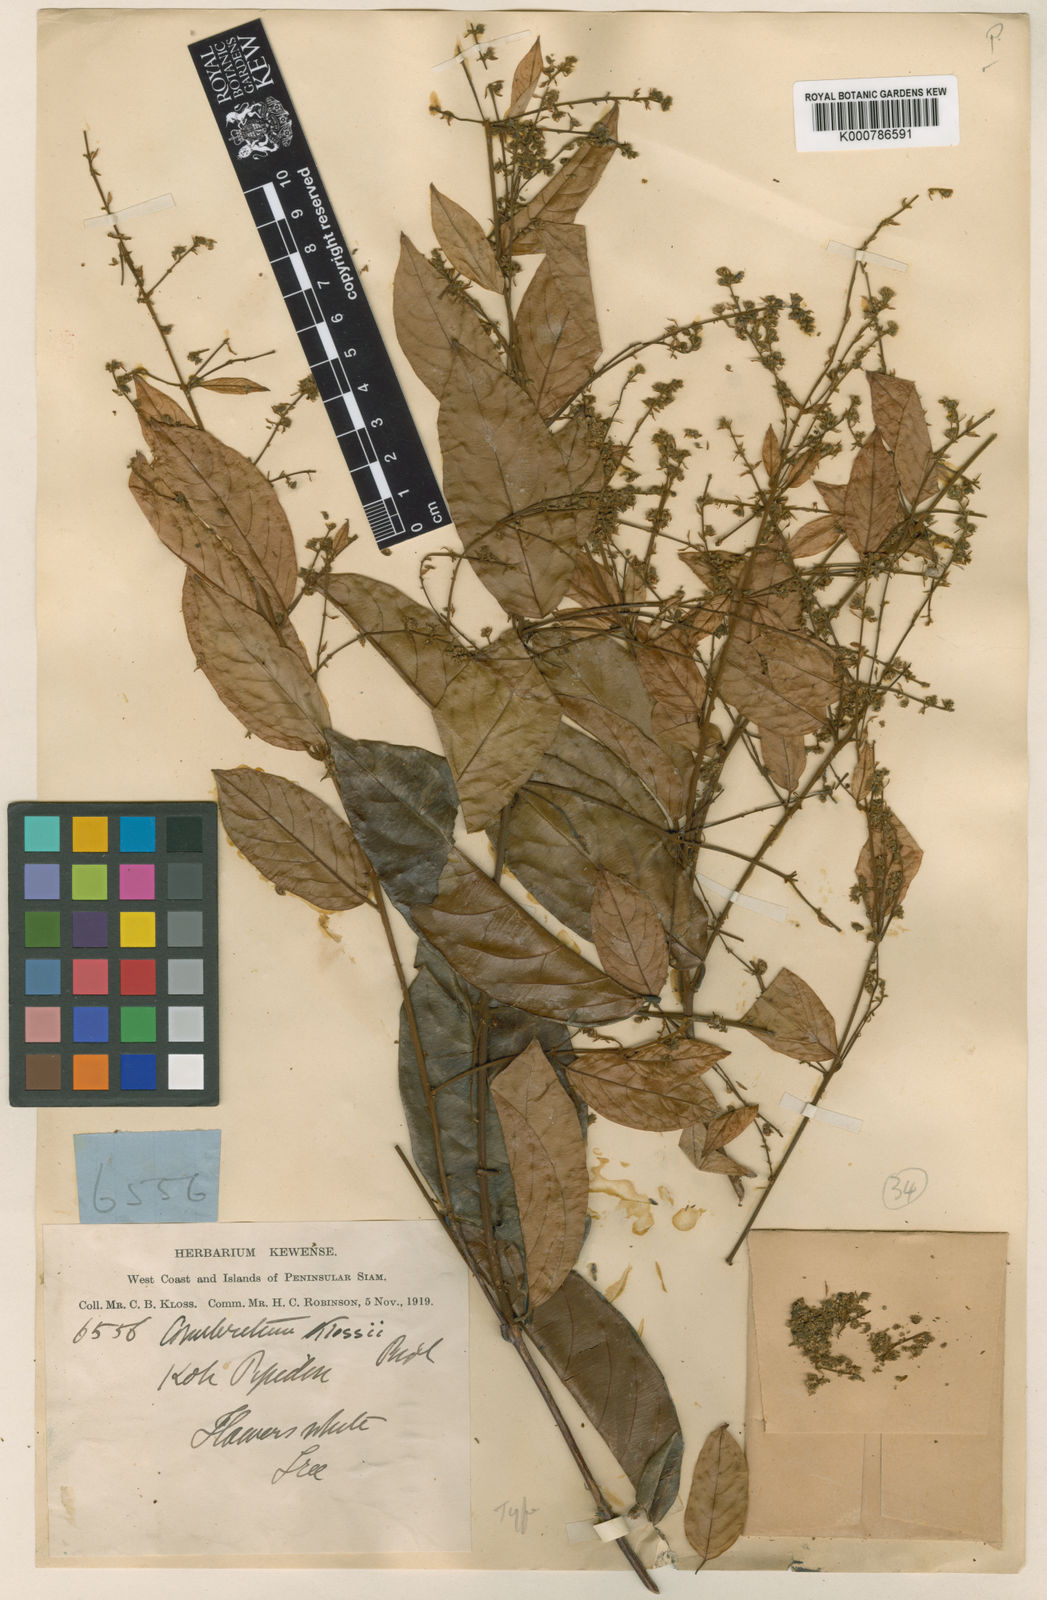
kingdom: Plantae
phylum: Tracheophyta
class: Magnoliopsida
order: Myrtales
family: Combretaceae
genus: Combretum
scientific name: Combretum roxburghii
